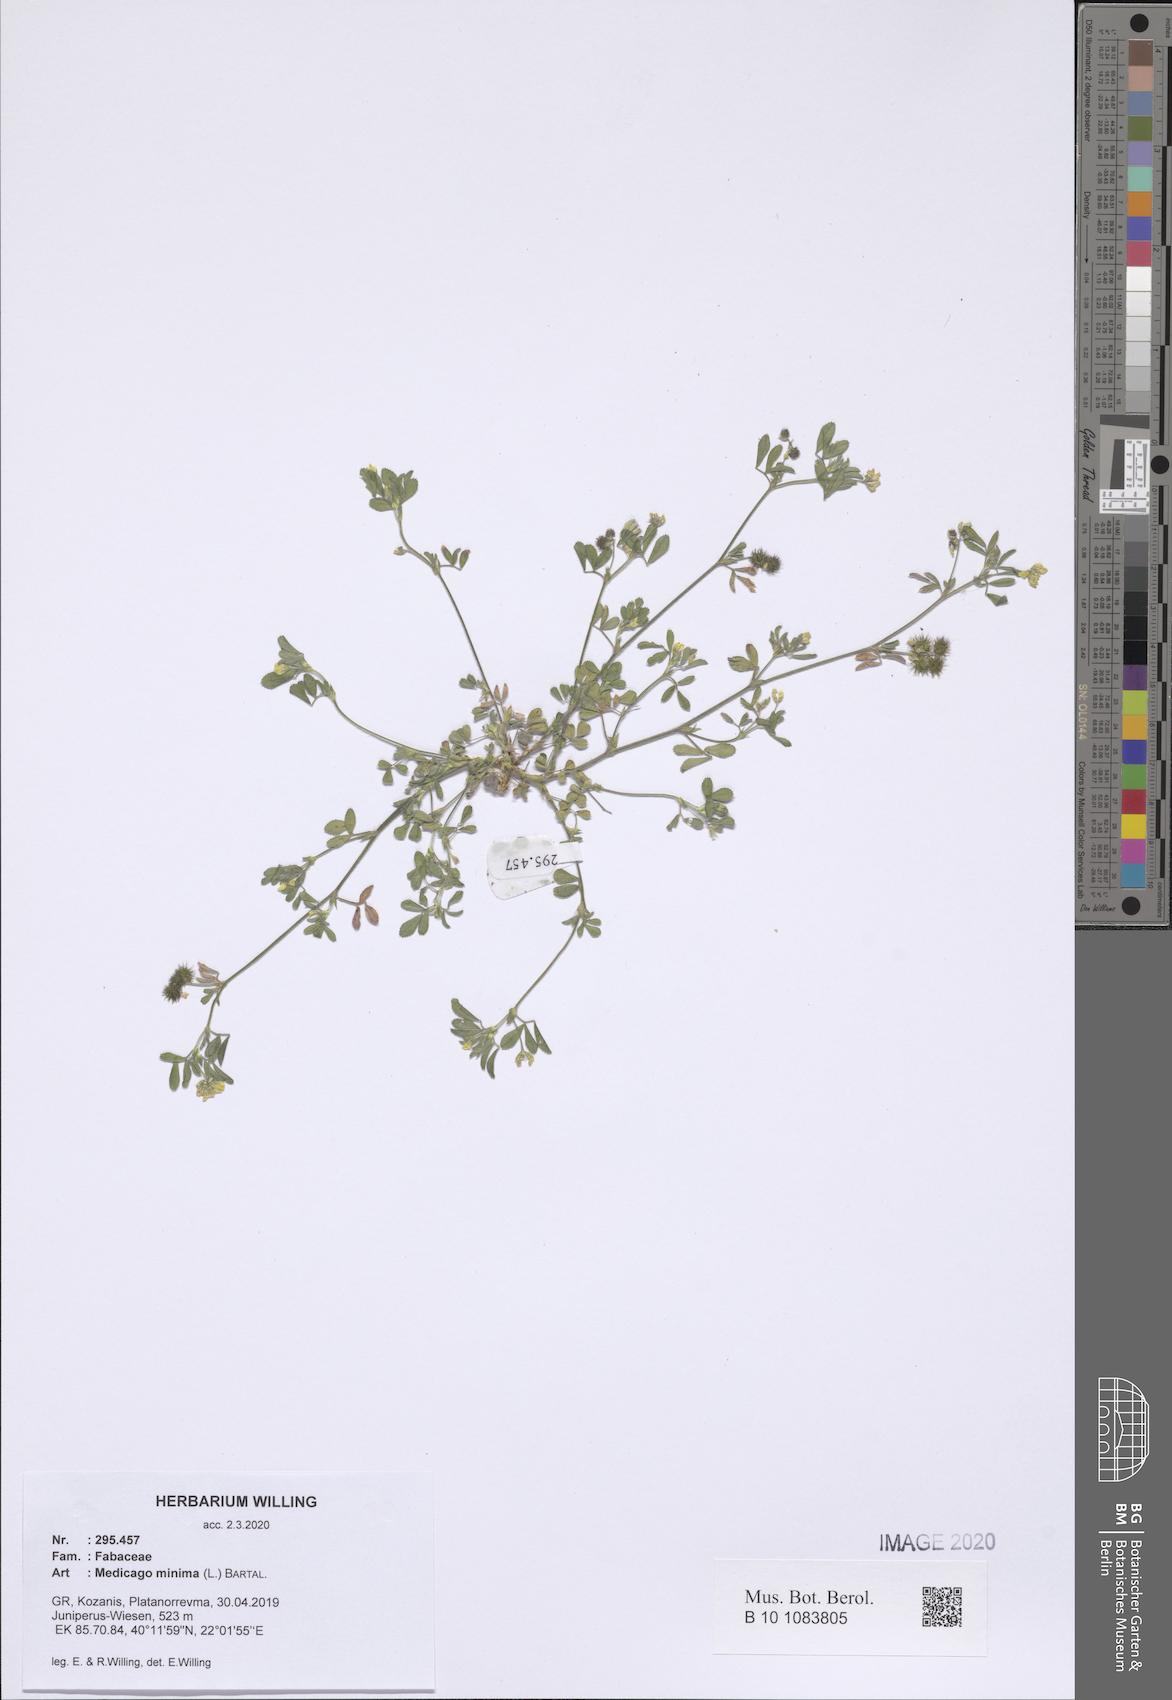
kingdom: Plantae
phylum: Tracheophyta
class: Magnoliopsida
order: Fabales
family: Fabaceae
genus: Medicago
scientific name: Medicago minima
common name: Little bur-clover
